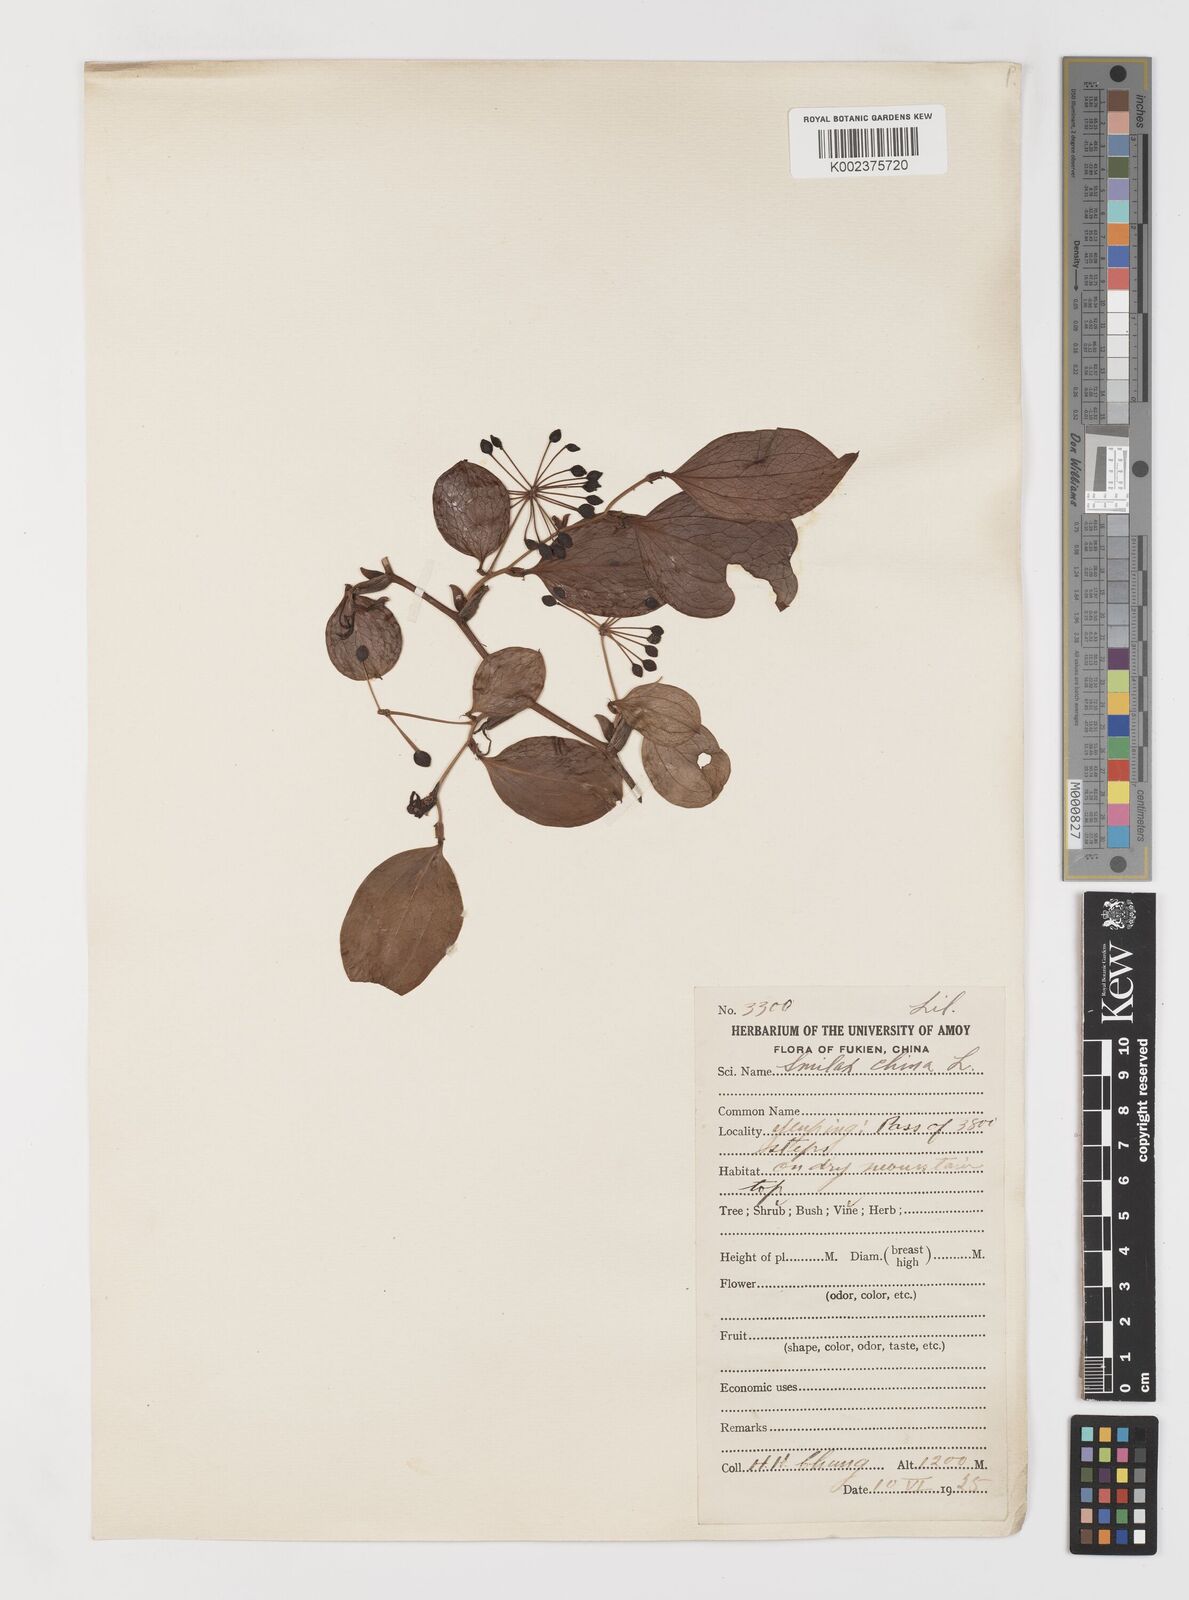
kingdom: Plantae
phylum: Tracheophyta
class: Liliopsida
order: Liliales
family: Smilacaceae
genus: Smilax
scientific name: Smilax china
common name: Chinaroot
